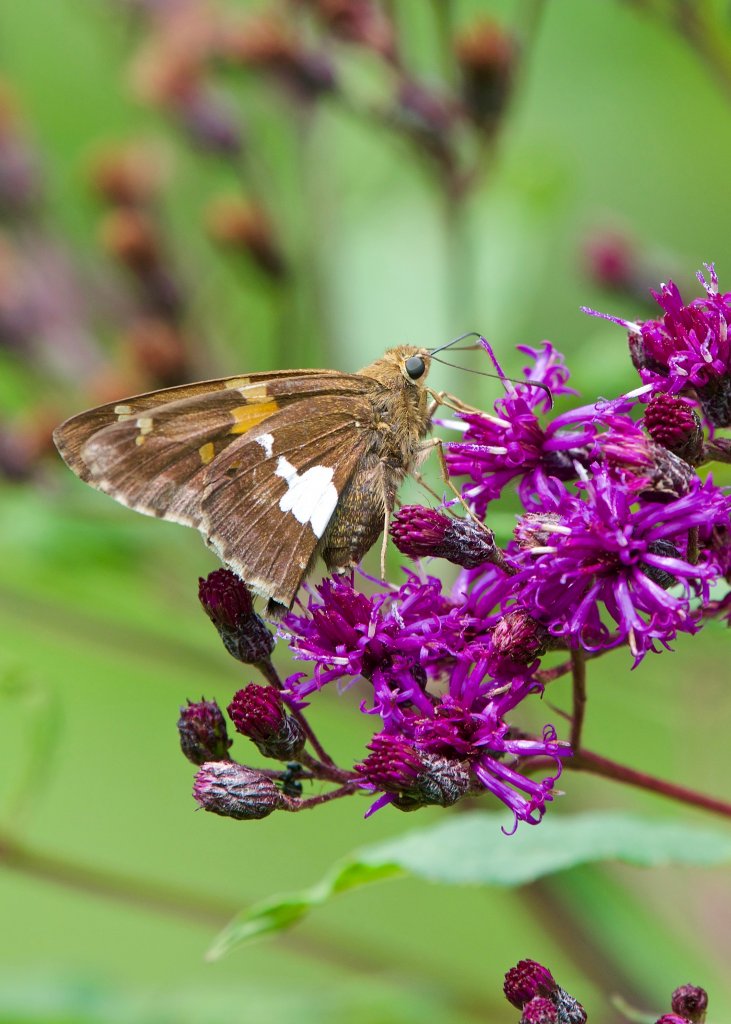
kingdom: Animalia
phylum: Arthropoda
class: Insecta
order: Lepidoptera
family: Hesperiidae
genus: Epargyreus
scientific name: Epargyreus clarus
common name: Silver-spotted Skipper
